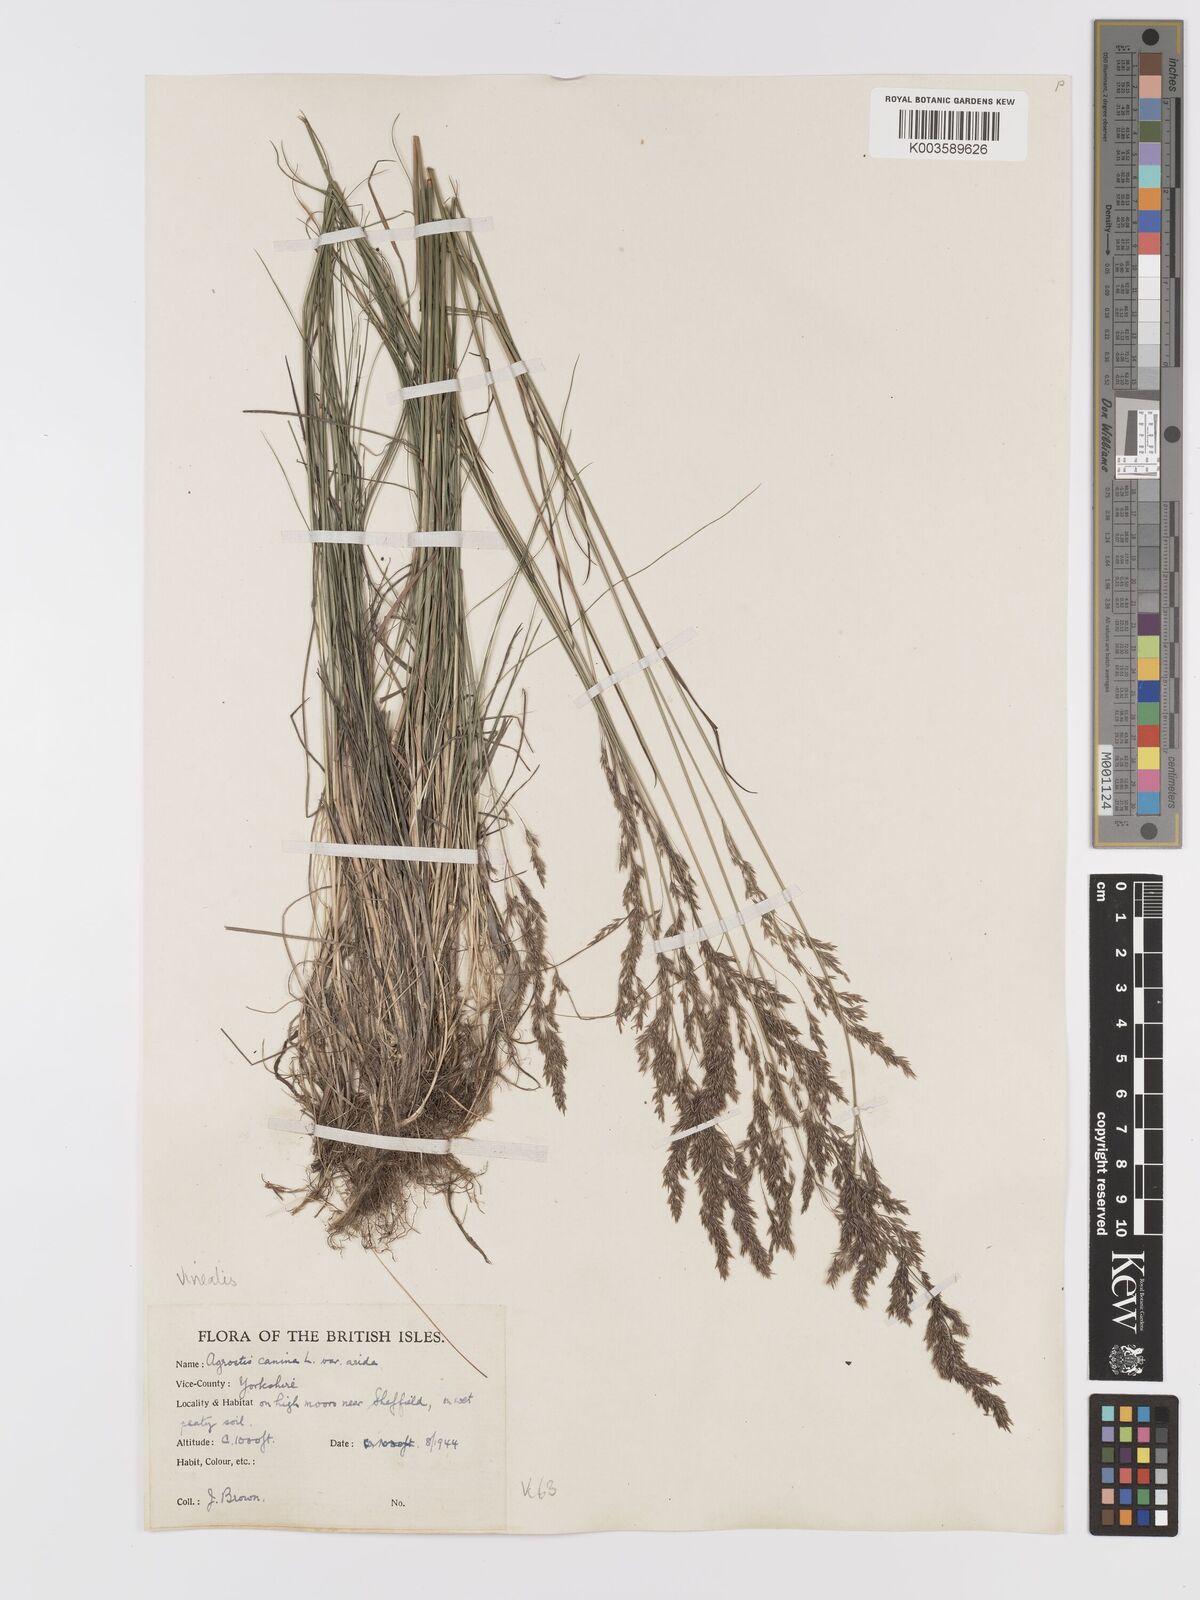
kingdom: Plantae
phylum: Tracheophyta
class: Liliopsida
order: Poales
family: Poaceae
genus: Agrostis
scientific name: Agrostis
